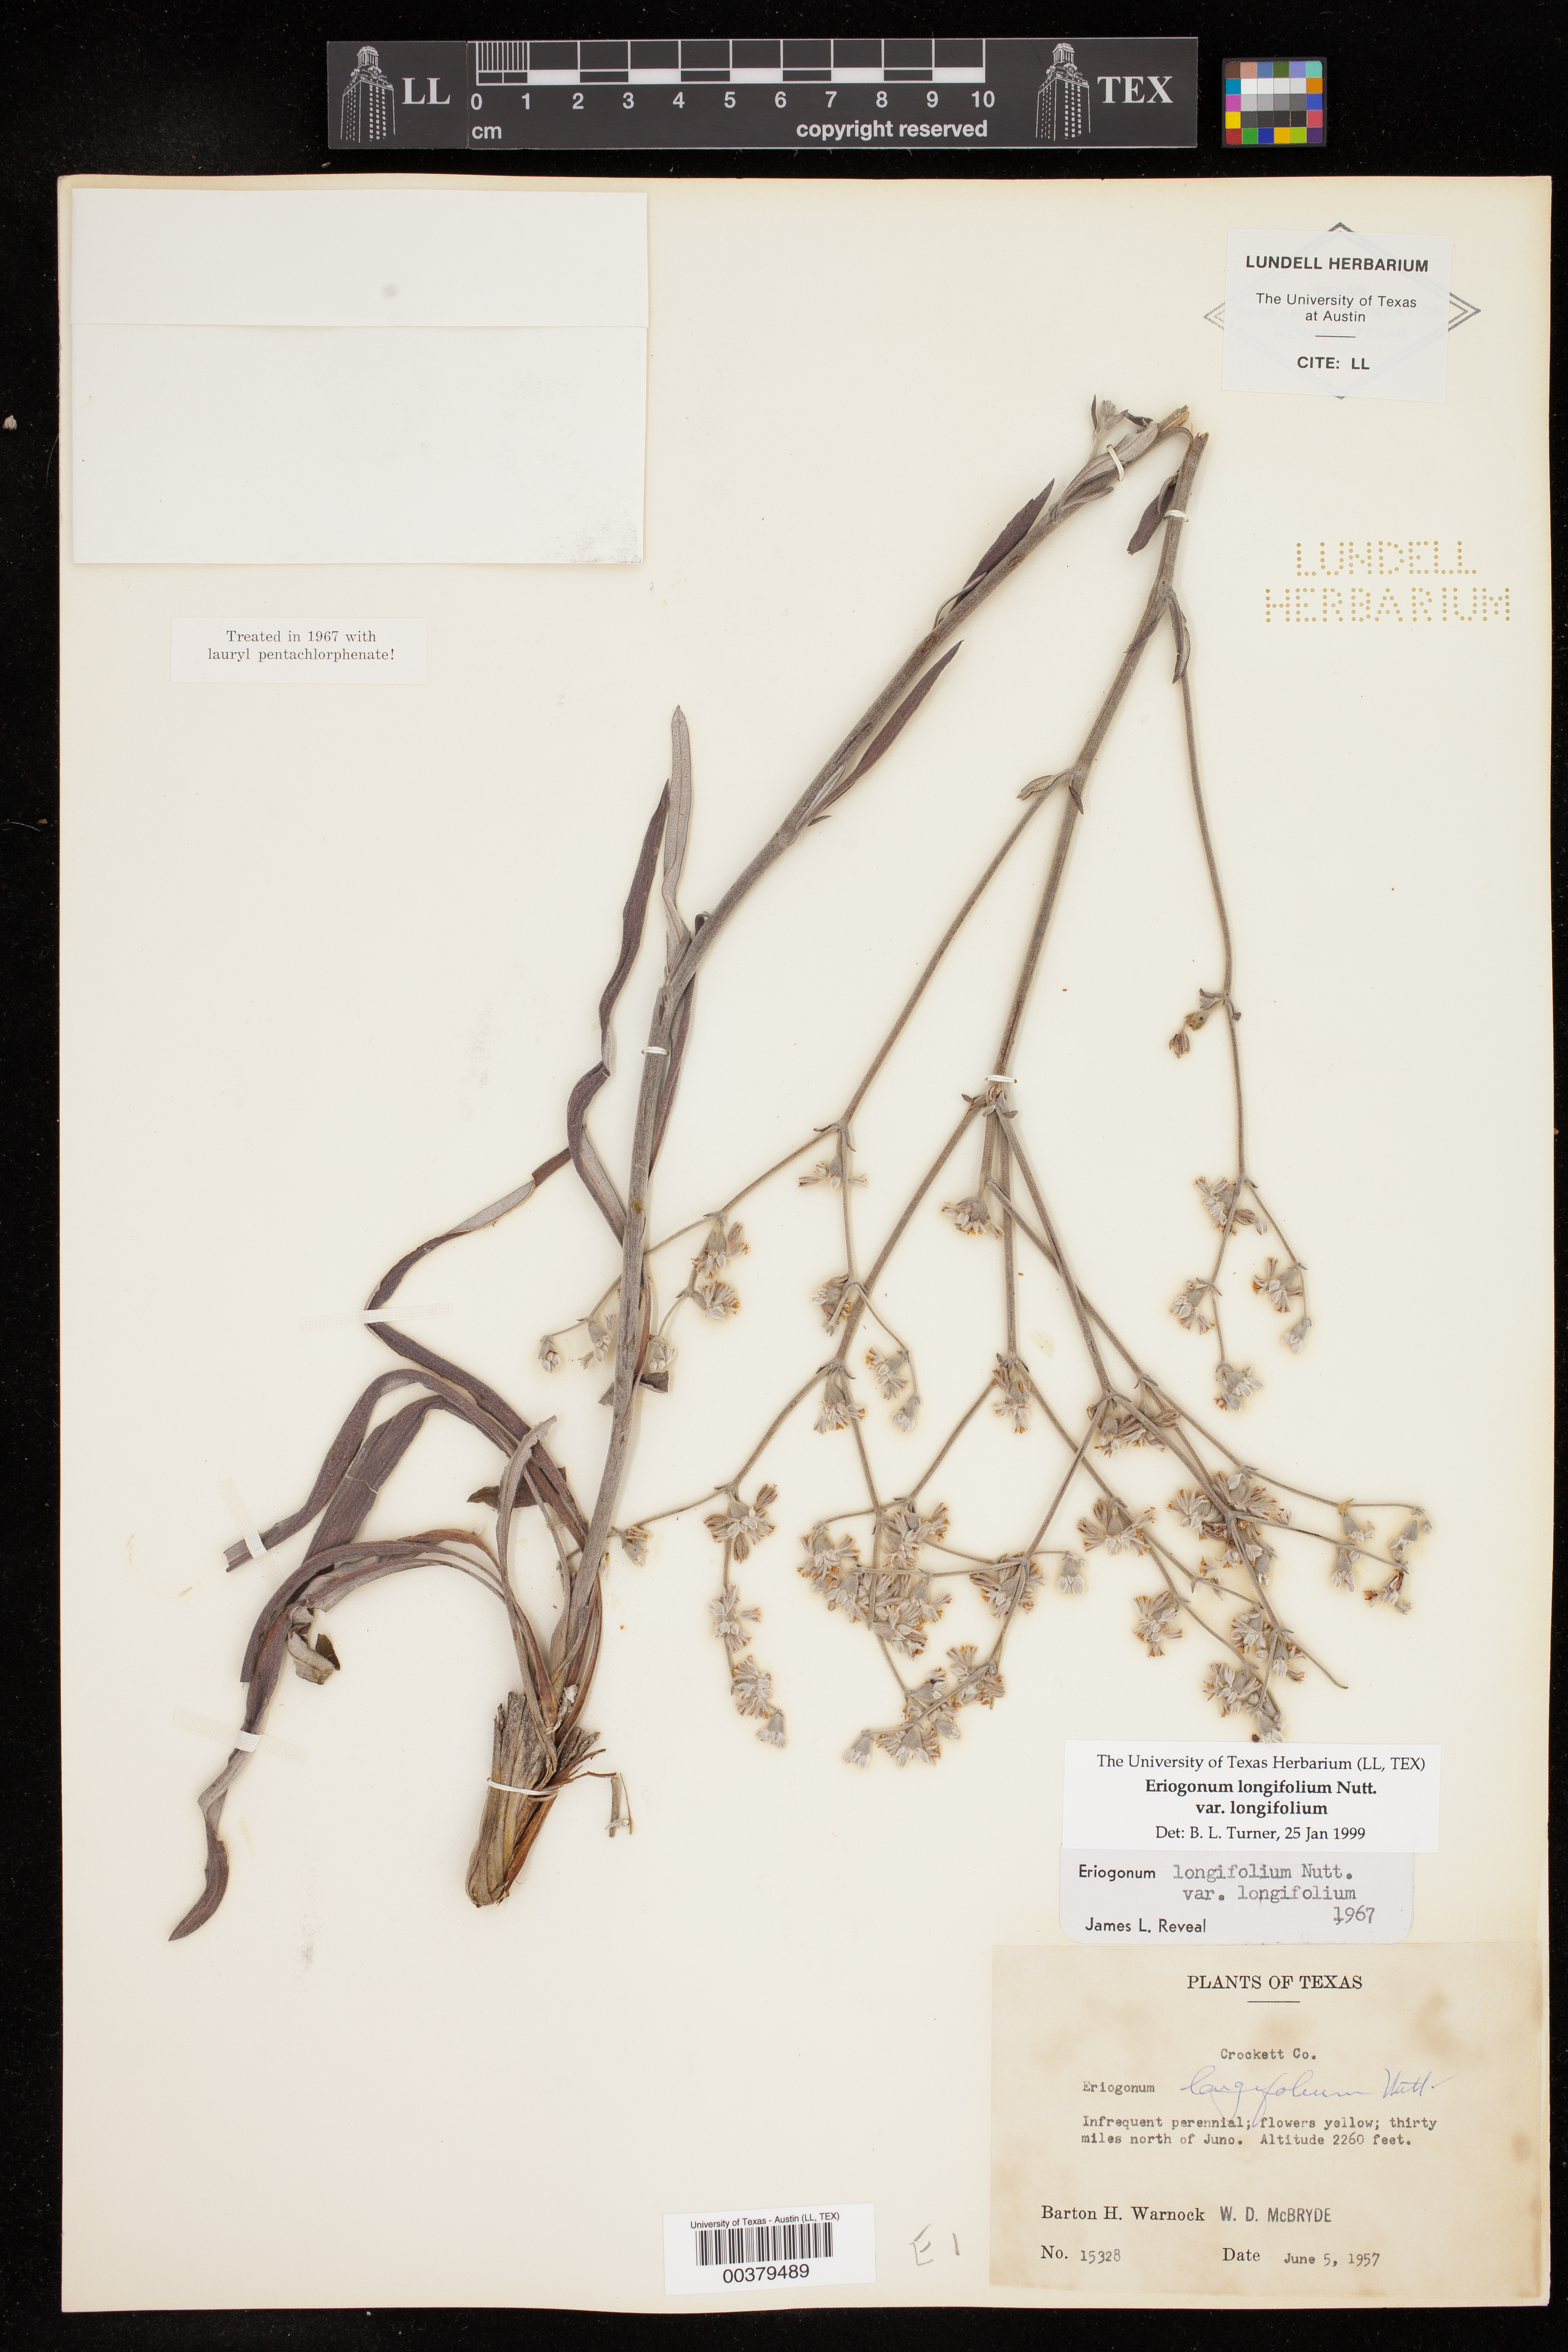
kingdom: Plantae
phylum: Tracheophyta
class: Magnoliopsida
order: Caryophyllales
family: Polygonaceae
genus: Eriogonum
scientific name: Eriogonum longifolium
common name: Longleaf wild buckwheat
